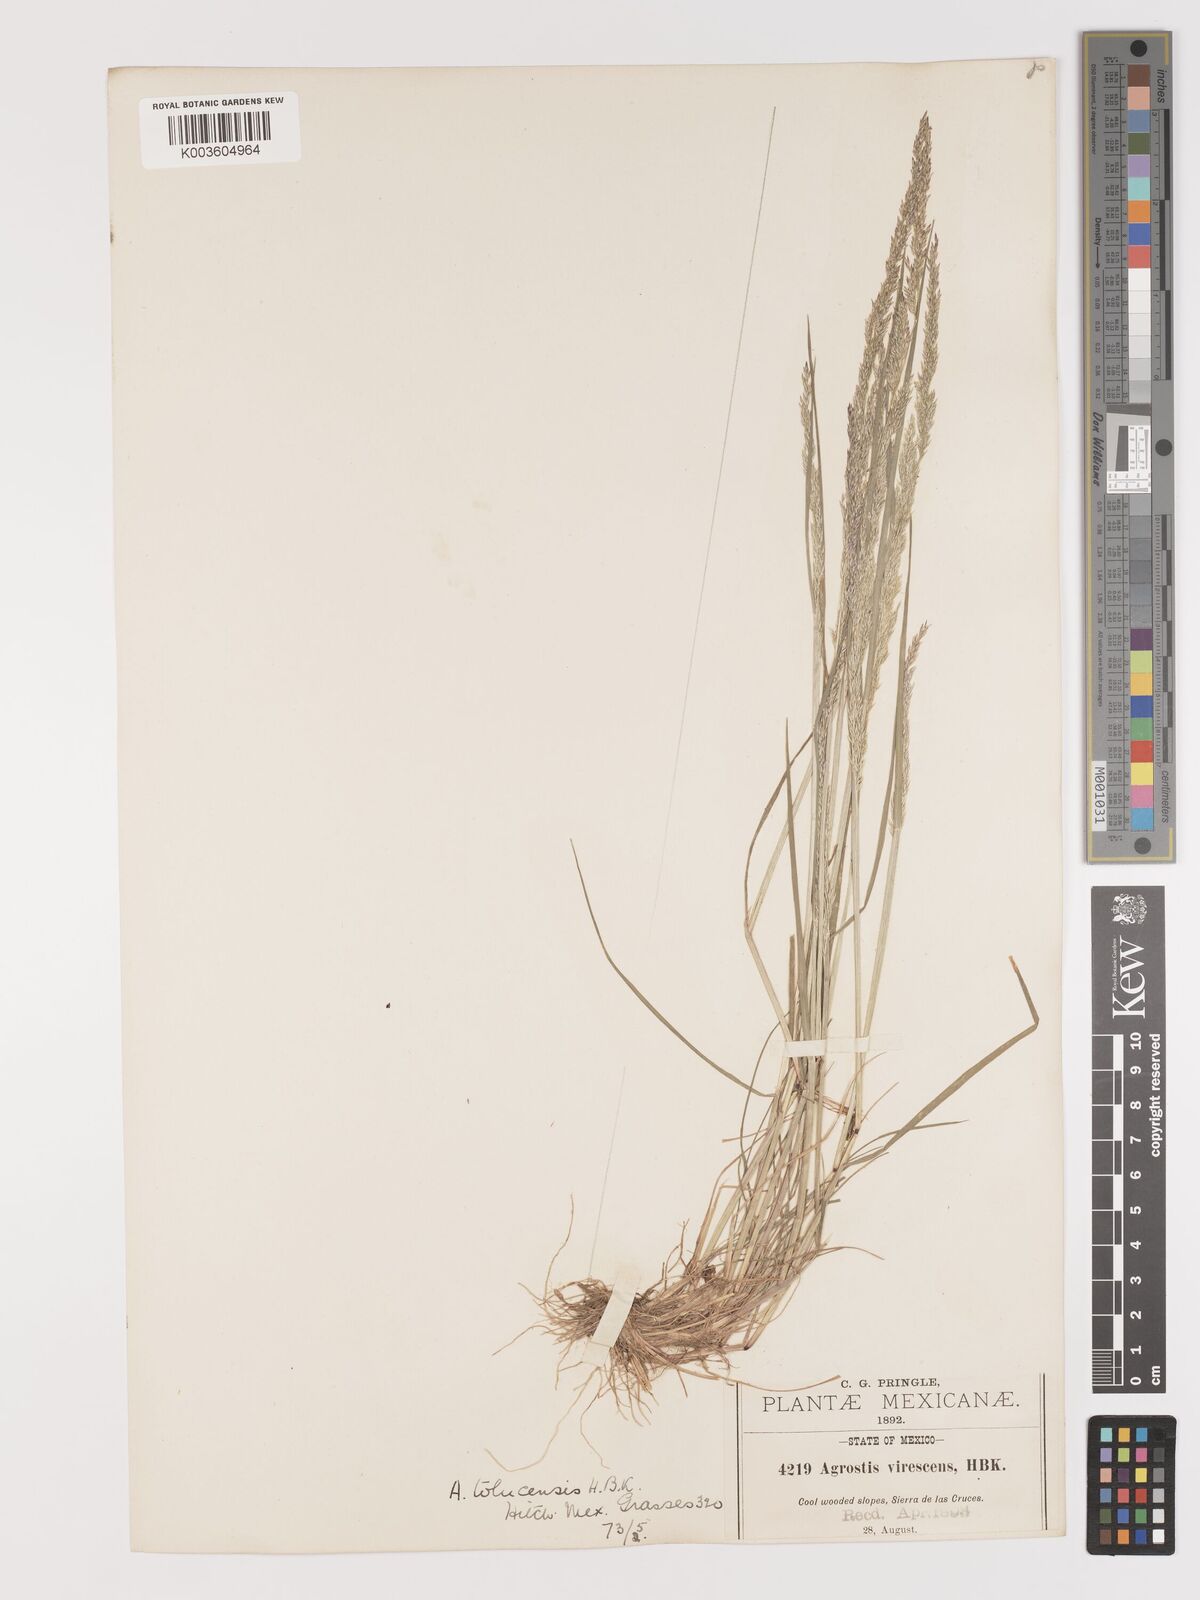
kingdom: Plantae
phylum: Tracheophyta
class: Liliopsida
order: Poales
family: Poaceae
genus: Agrostis
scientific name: Agrostis tolucensis
